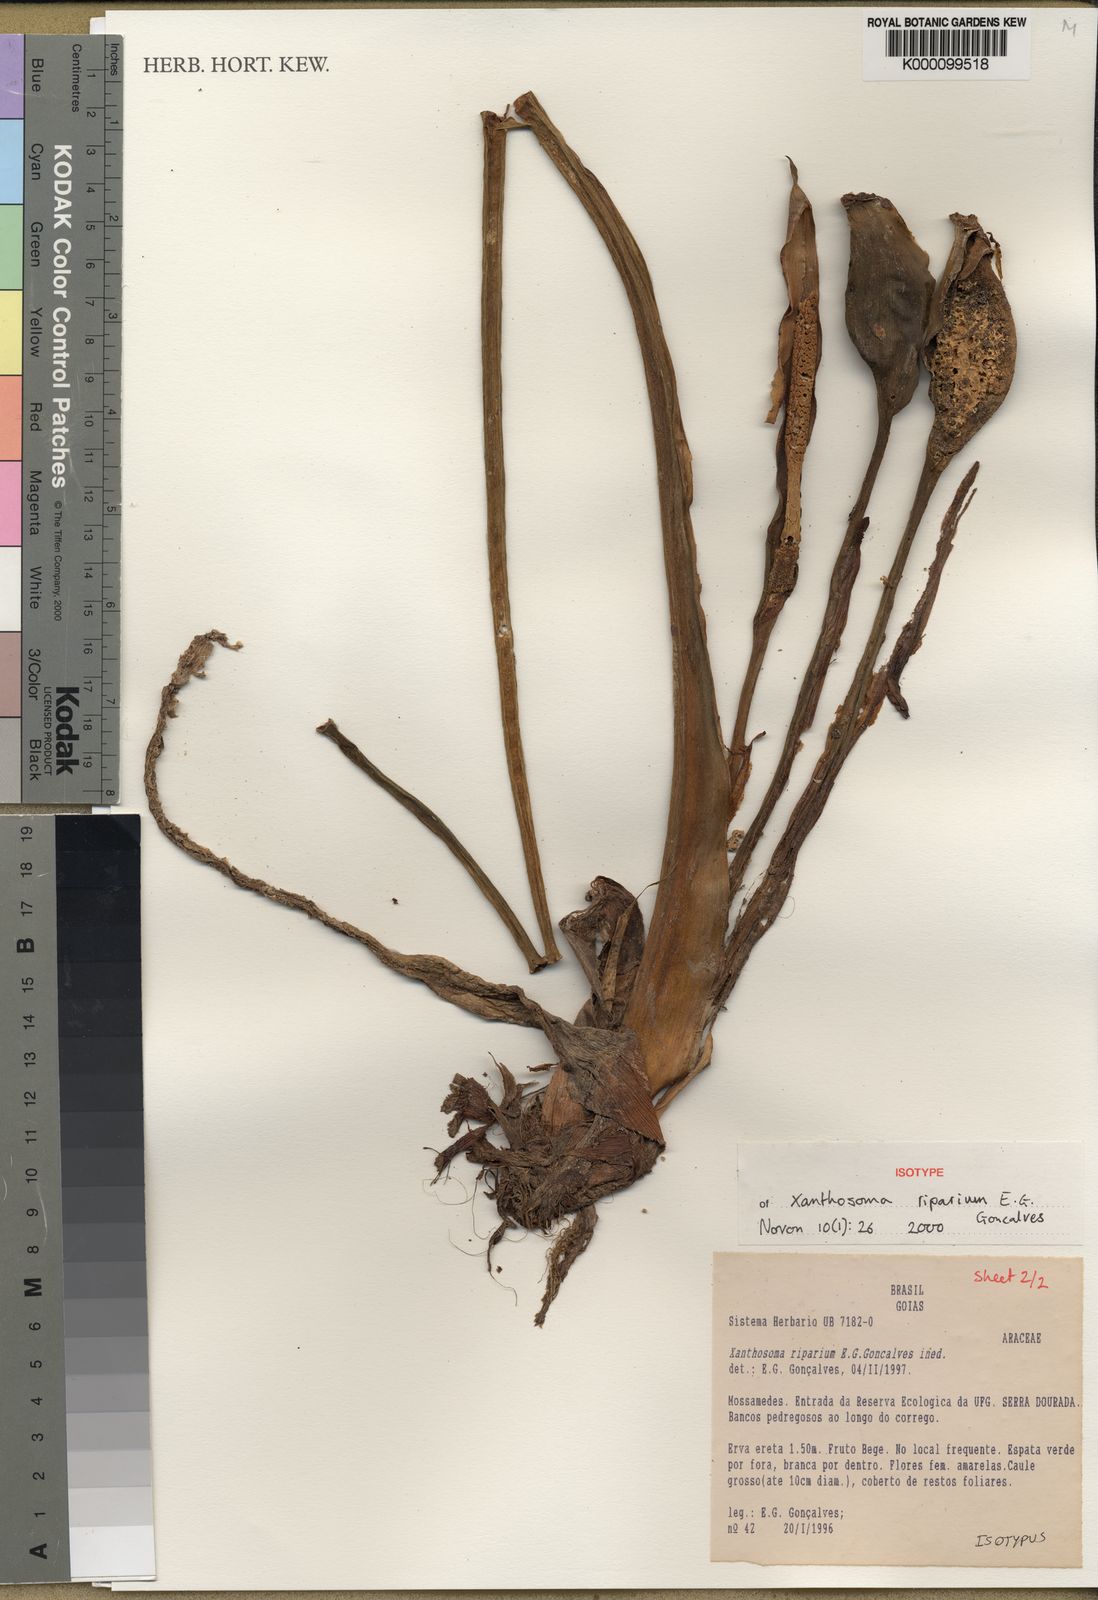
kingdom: Plantae
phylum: Tracheophyta
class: Liliopsida
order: Alismatales
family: Araceae
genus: Xanthosoma
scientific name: Xanthosoma
